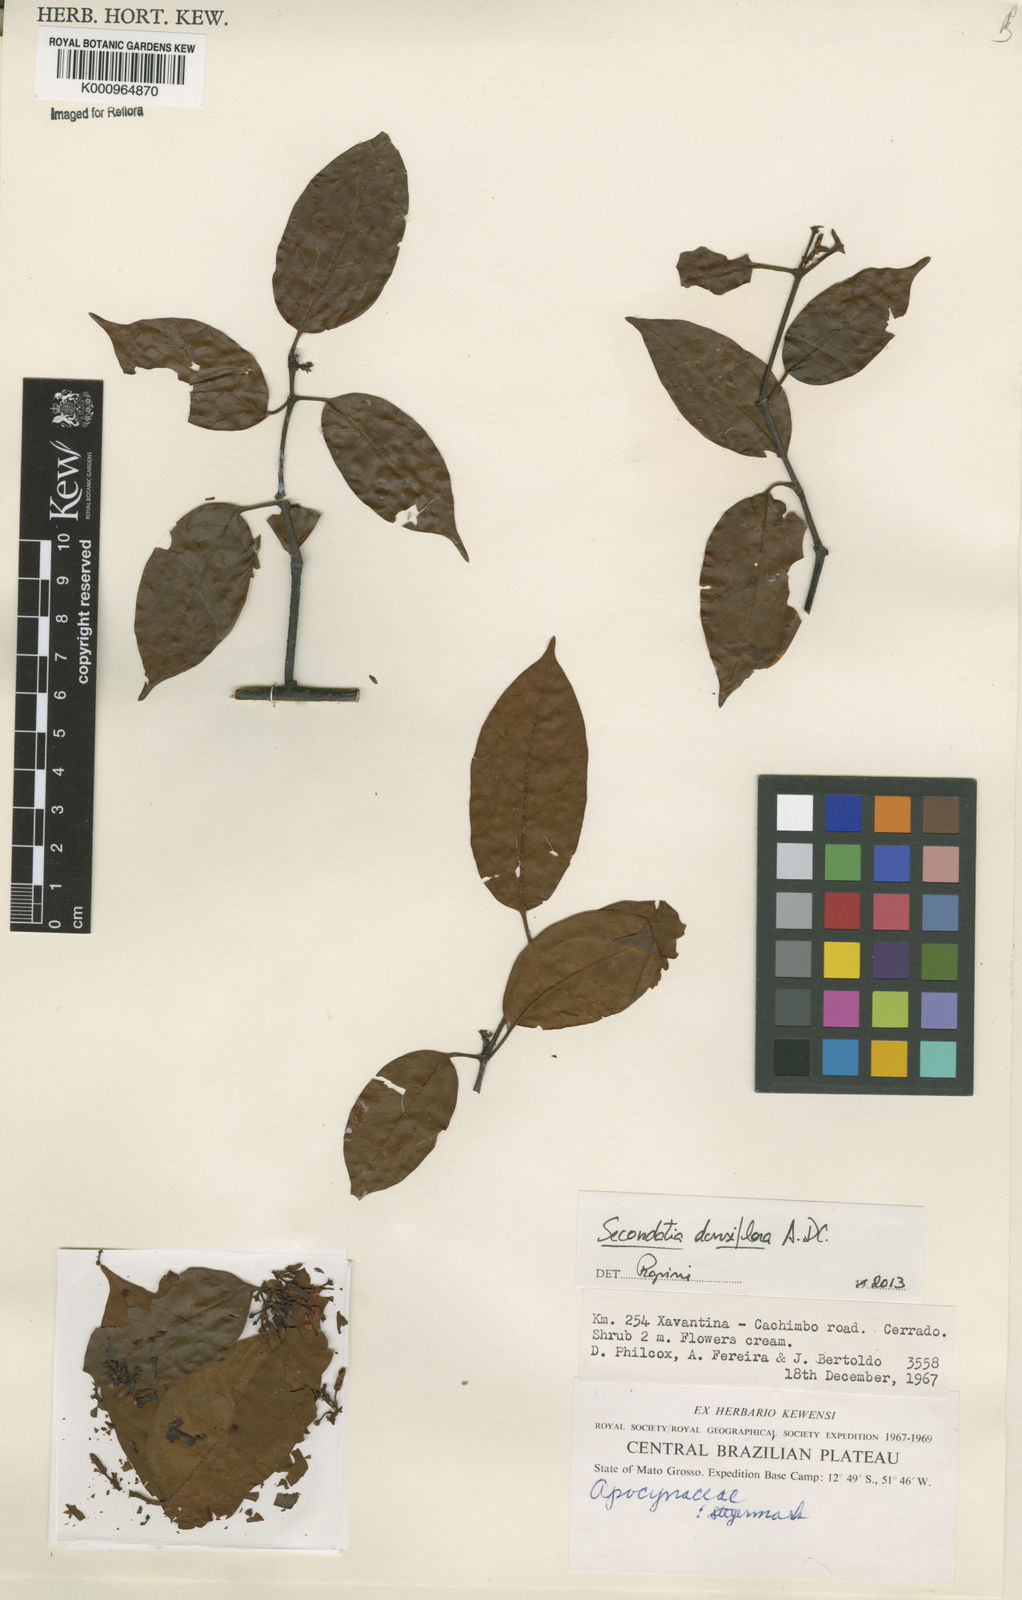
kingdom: Plantae
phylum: Tracheophyta
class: Magnoliopsida
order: Gentianales
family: Apocynaceae
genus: Secondatia
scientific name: Secondatia densiflora
